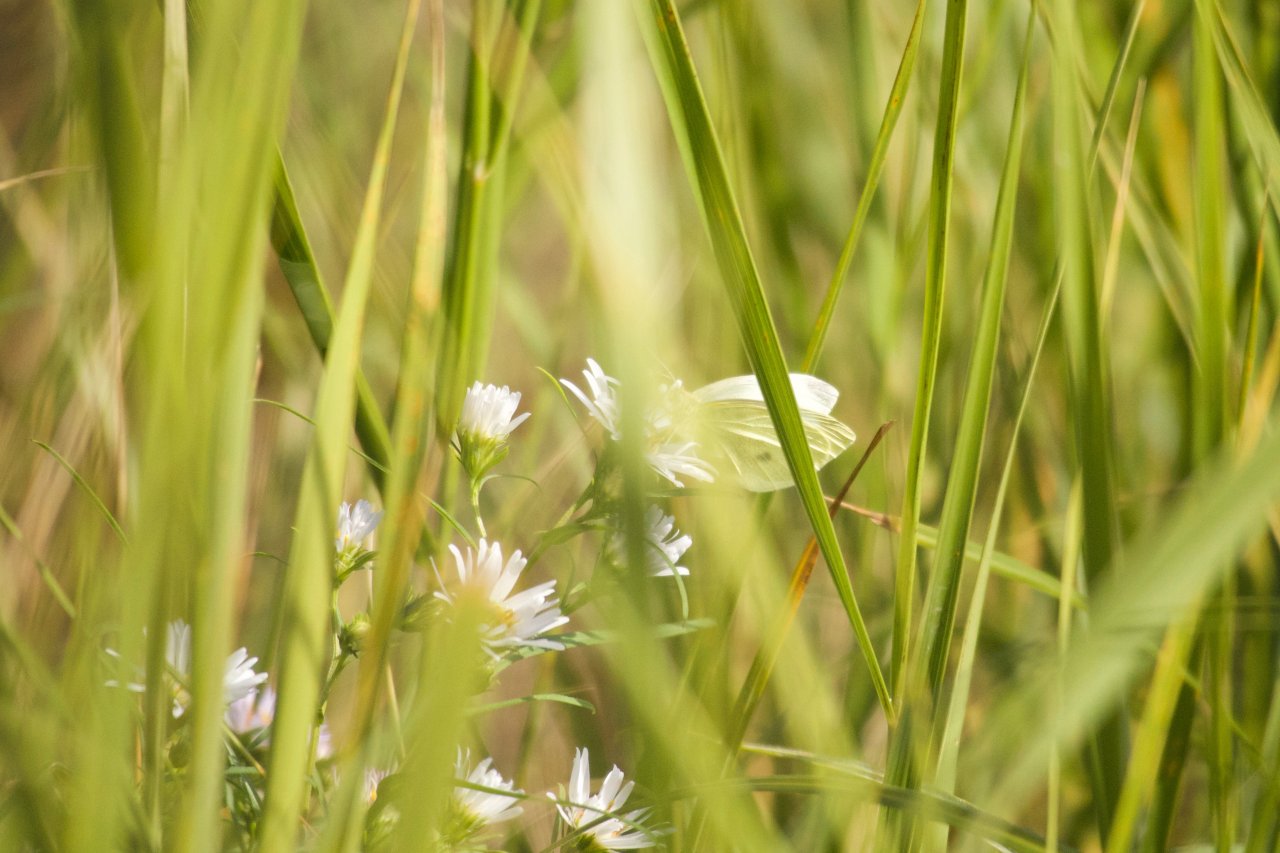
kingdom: Animalia
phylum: Arthropoda
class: Insecta
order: Lepidoptera
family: Pieridae
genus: Pieris
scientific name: Pieris rapae
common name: Cabbage White
